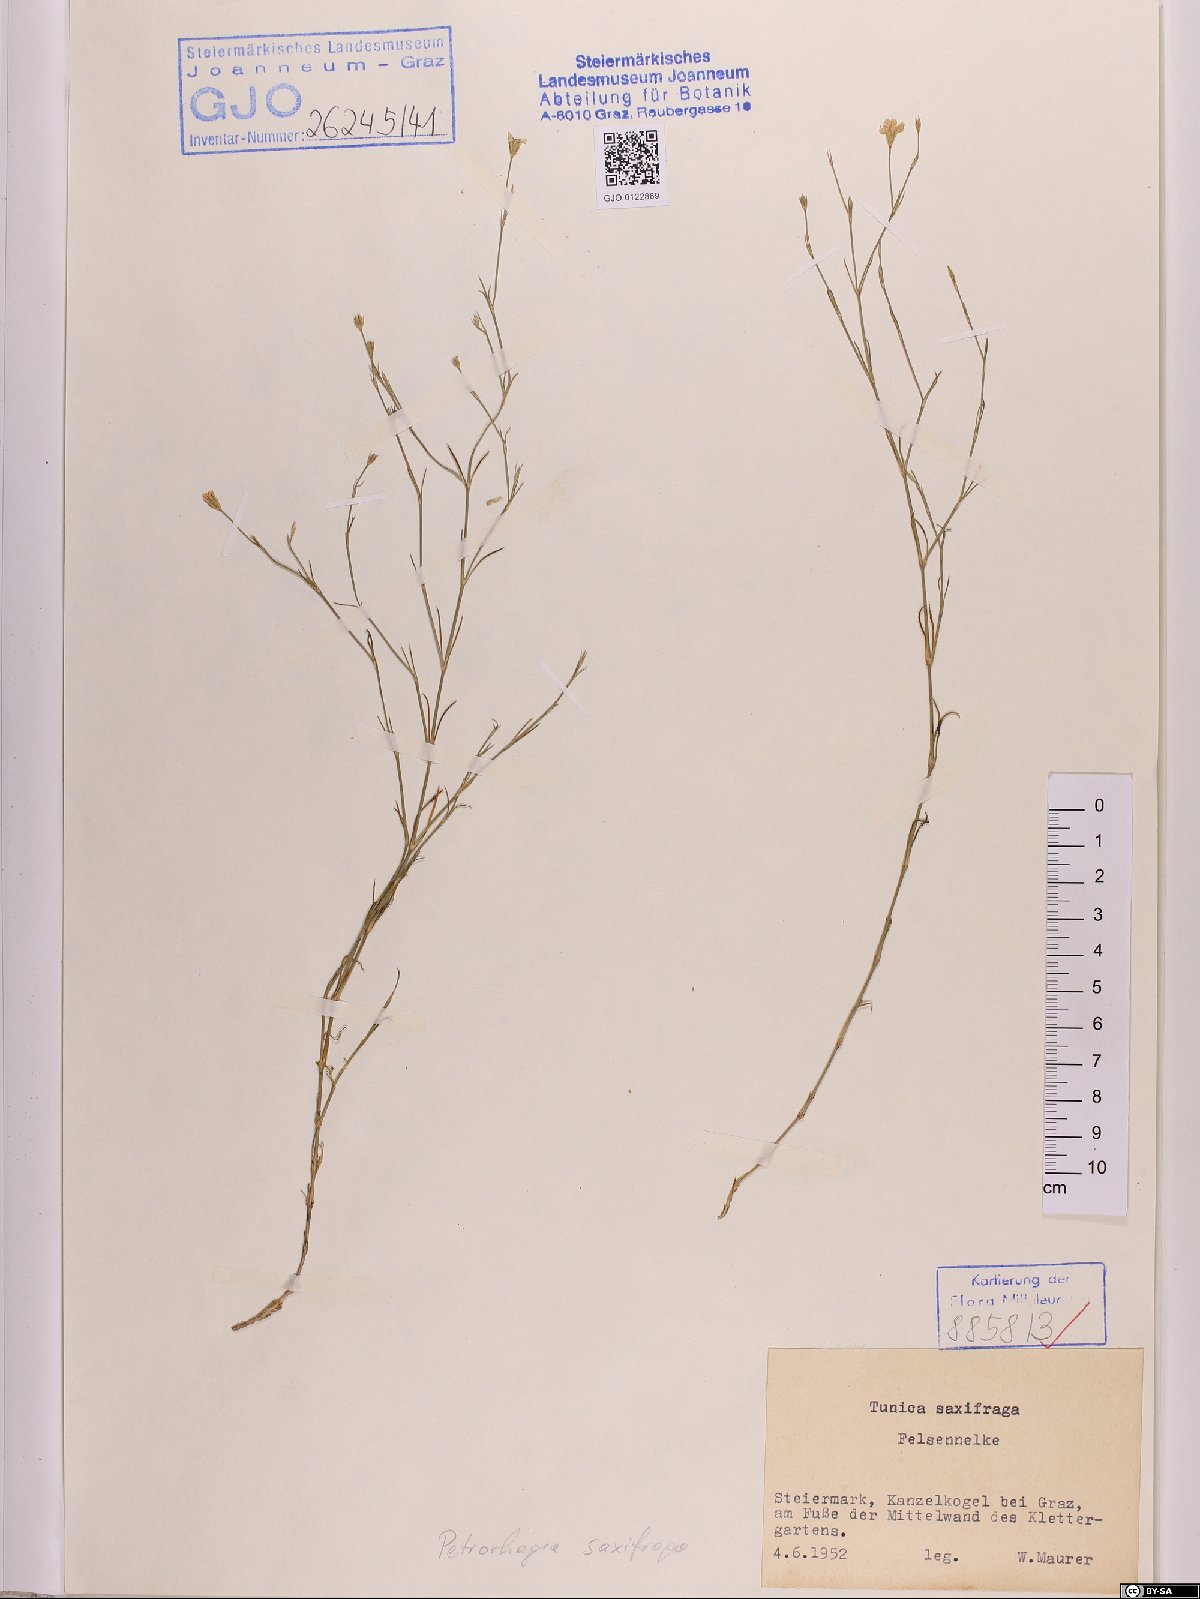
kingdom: Plantae
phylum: Tracheophyta
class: Magnoliopsida
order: Caryophyllales
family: Caryophyllaceae
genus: Petrorhagia
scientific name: Petrorhagia saxifraga
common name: Tunicflower
